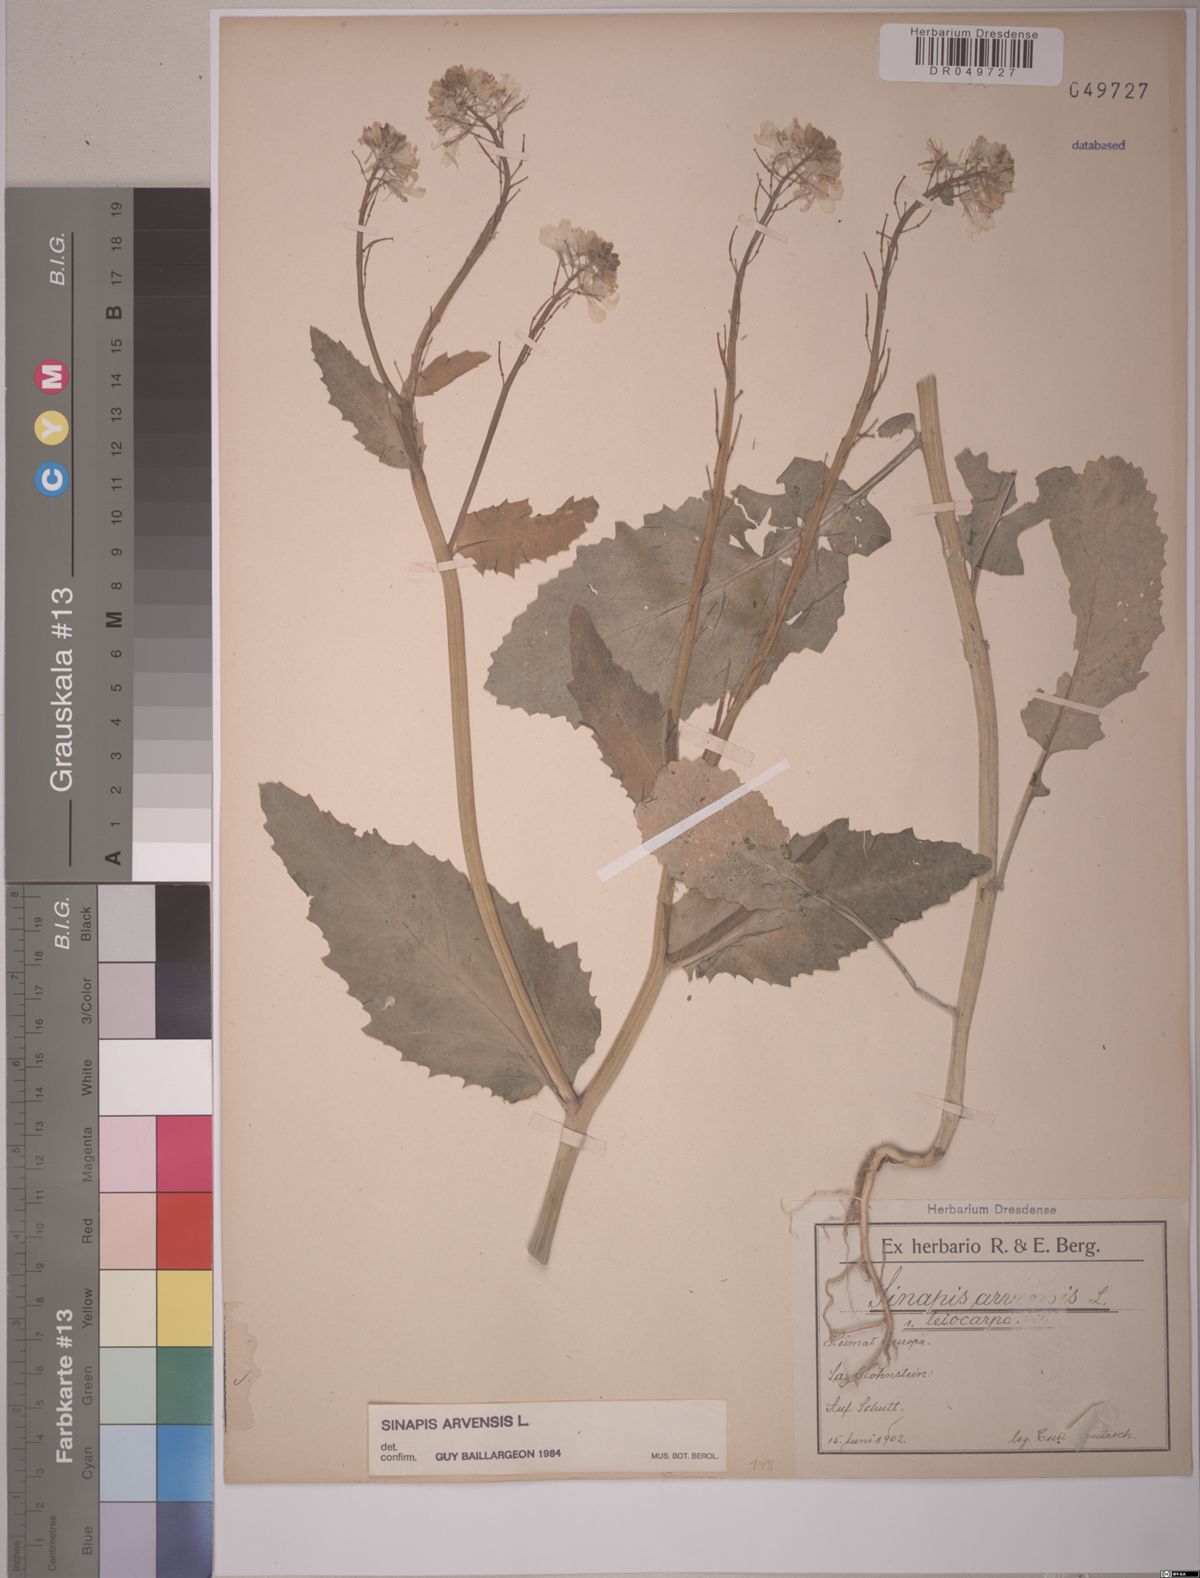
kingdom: Plantae
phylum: Tracheophyta
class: Magnoliopsida
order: Brassicales
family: Brassicaceae
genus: Sinapis
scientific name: Sinapis arvensis
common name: Charlock
